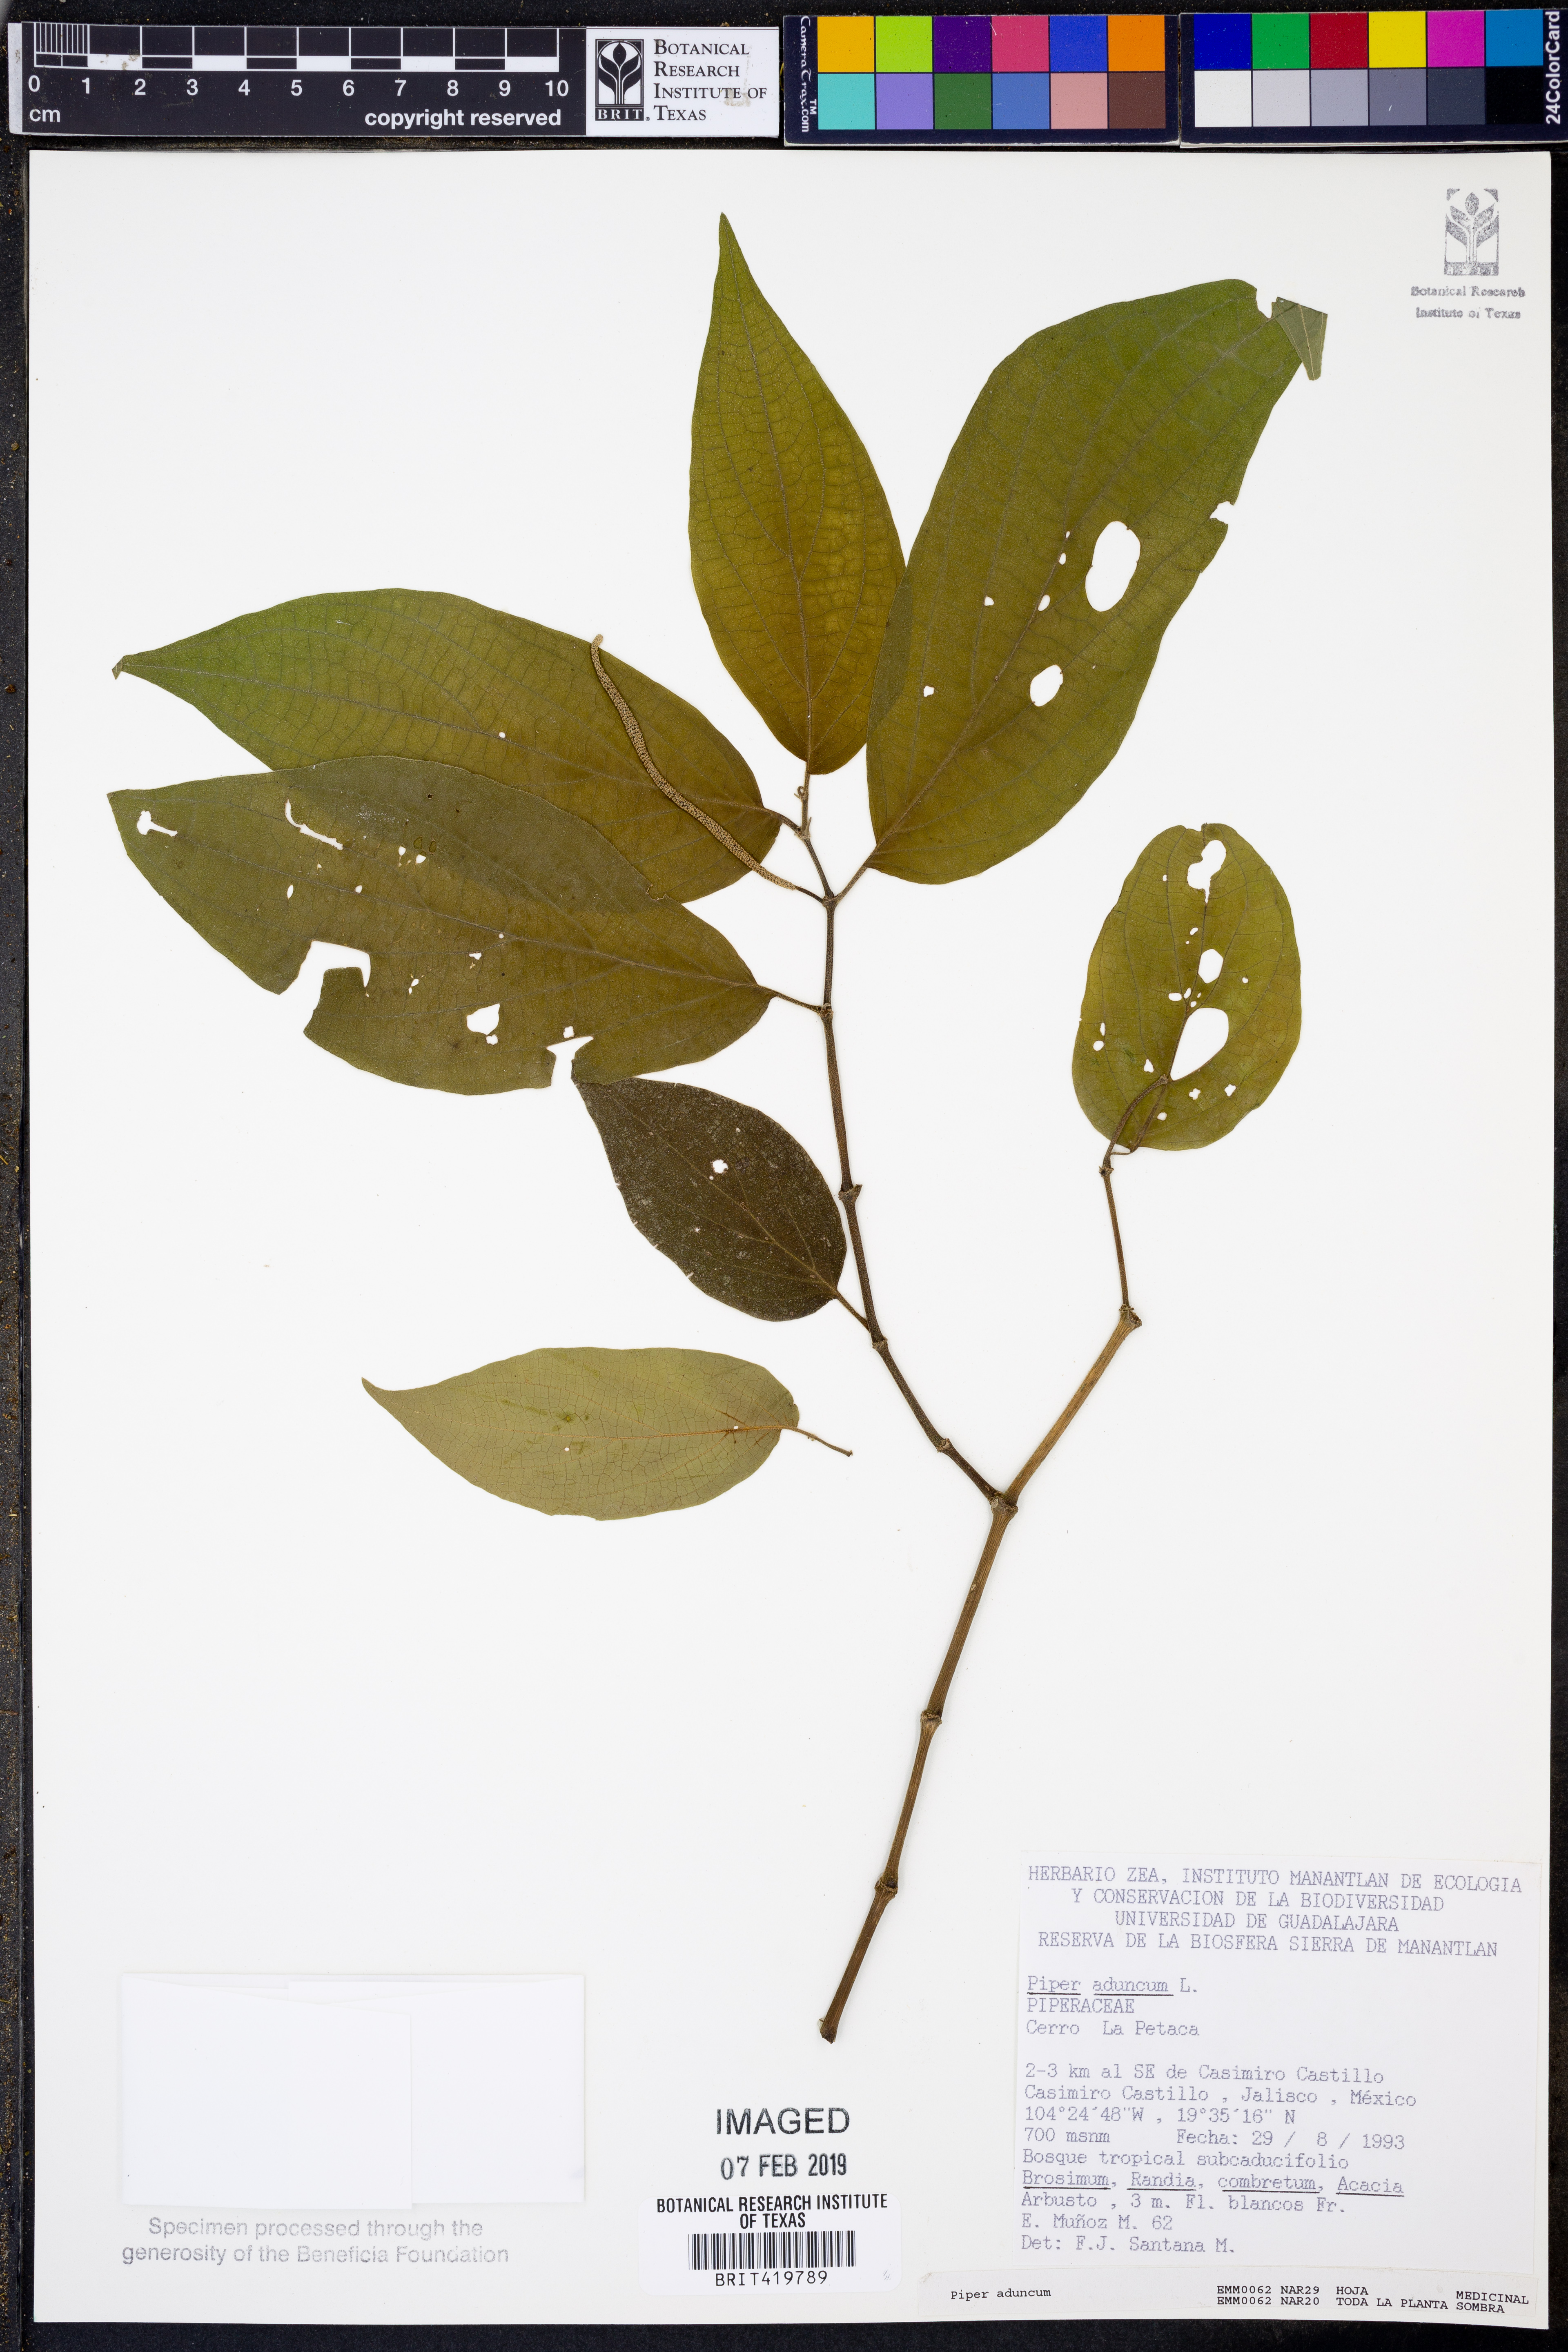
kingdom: Plantae
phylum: Tracheophyta
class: Magnoliopsida
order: Piperales
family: Piperaceae
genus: Piper
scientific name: Piper aduncum
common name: Spiked pepper
